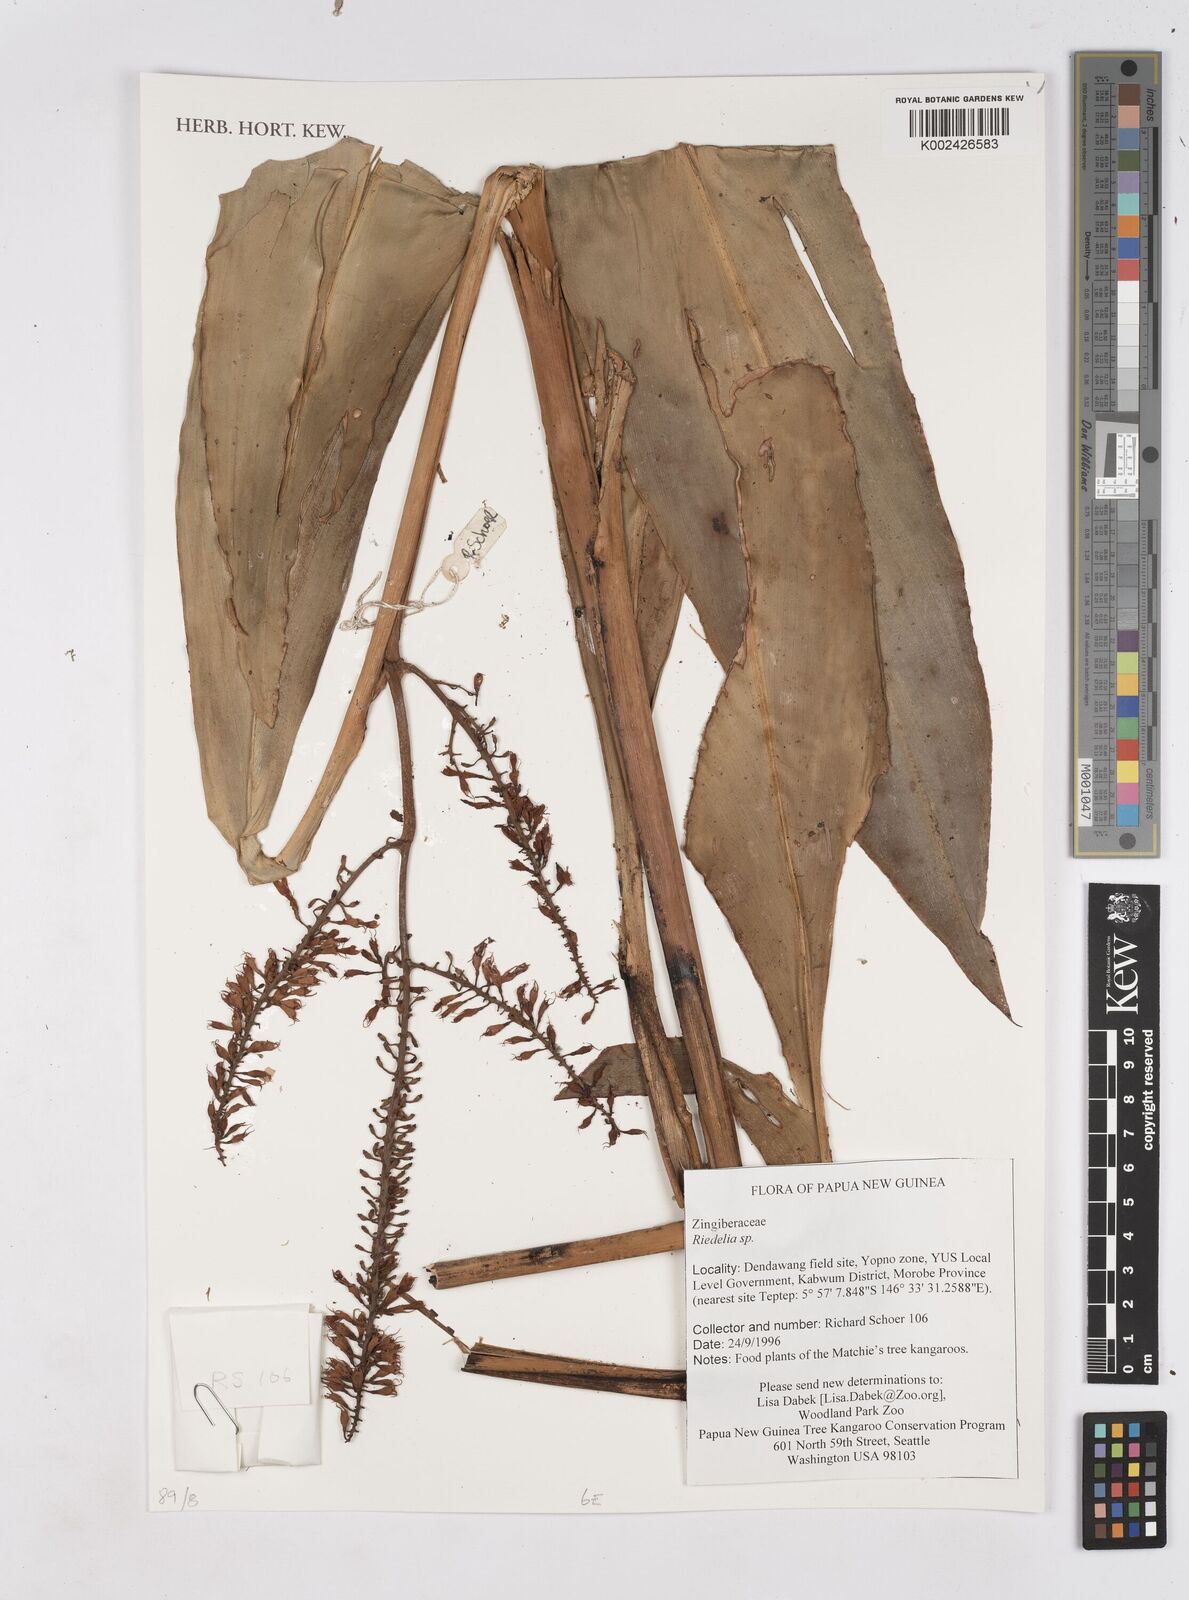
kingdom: Plantae
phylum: Tracheophyta
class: Liliopsida
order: Zingiberales
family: Zingiberaceae
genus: Riedelia
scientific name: Riedelia
